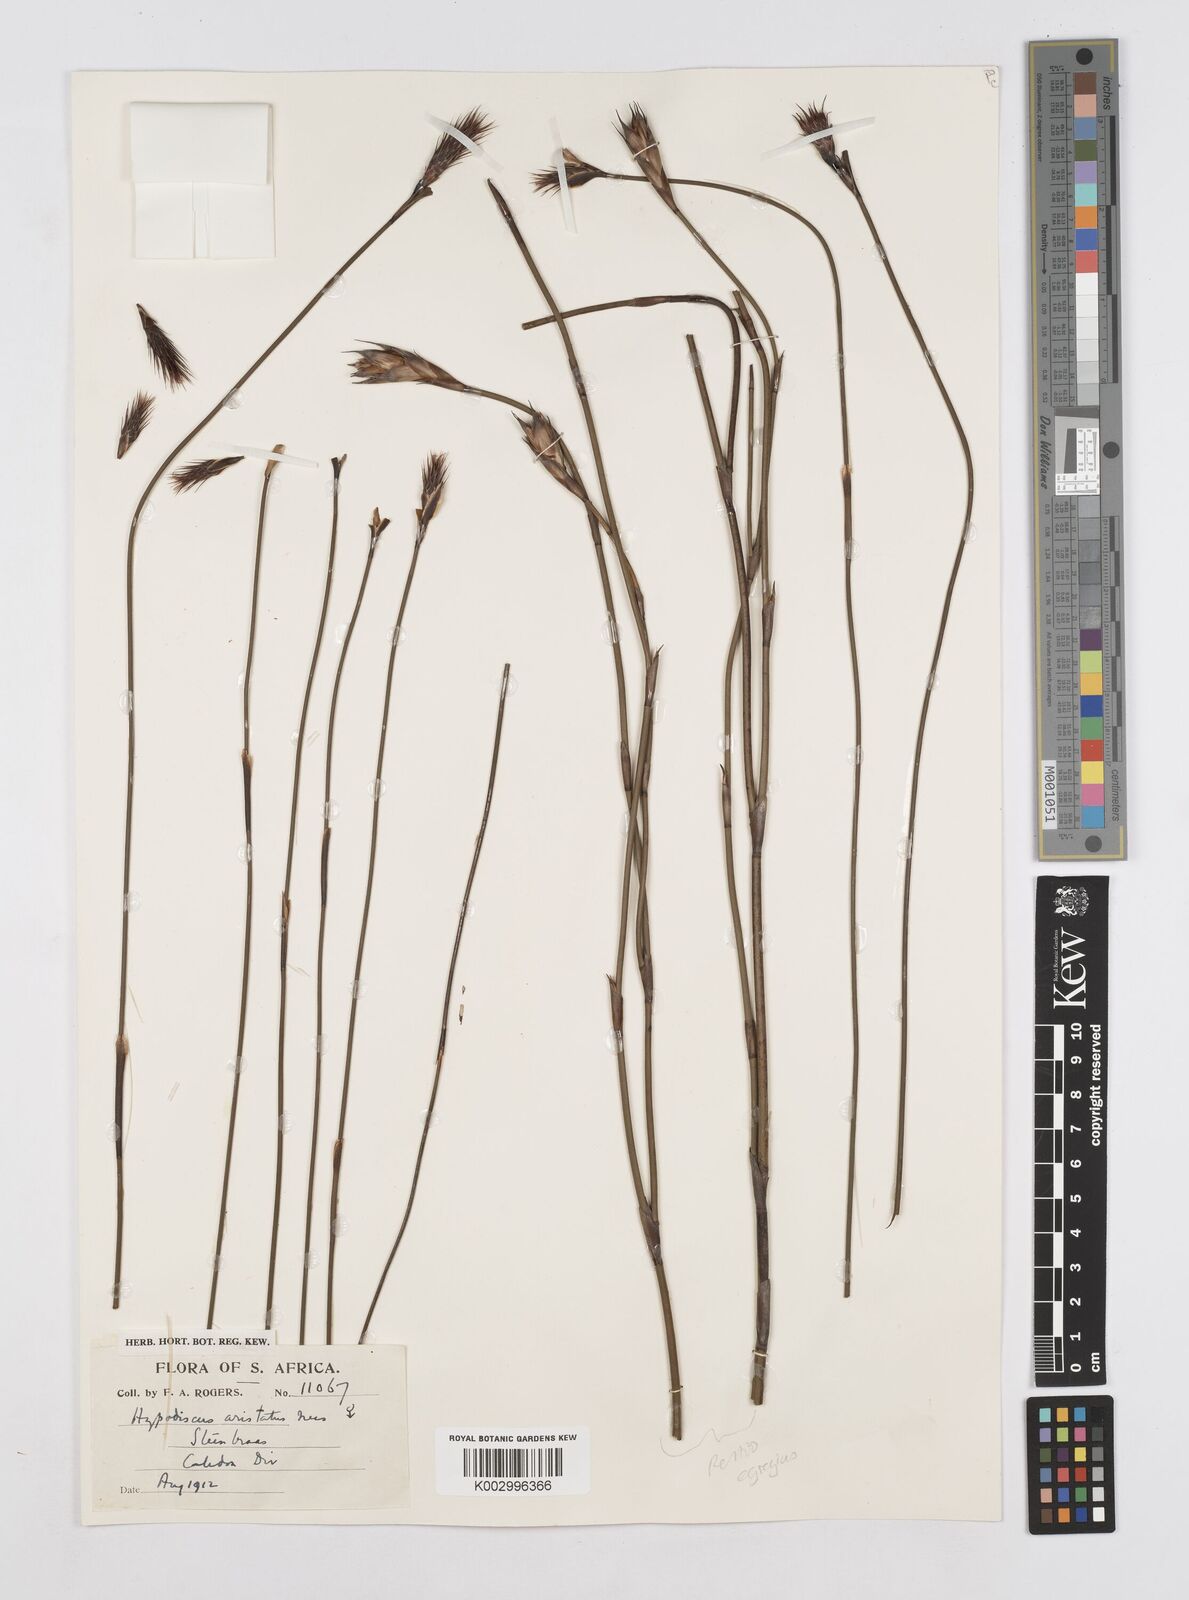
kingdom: Plantae
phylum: Tracheophyta
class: Liliopsida
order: Poales
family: Restionaceae
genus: Hypodiscus
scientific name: Hypodiscus aristatus
